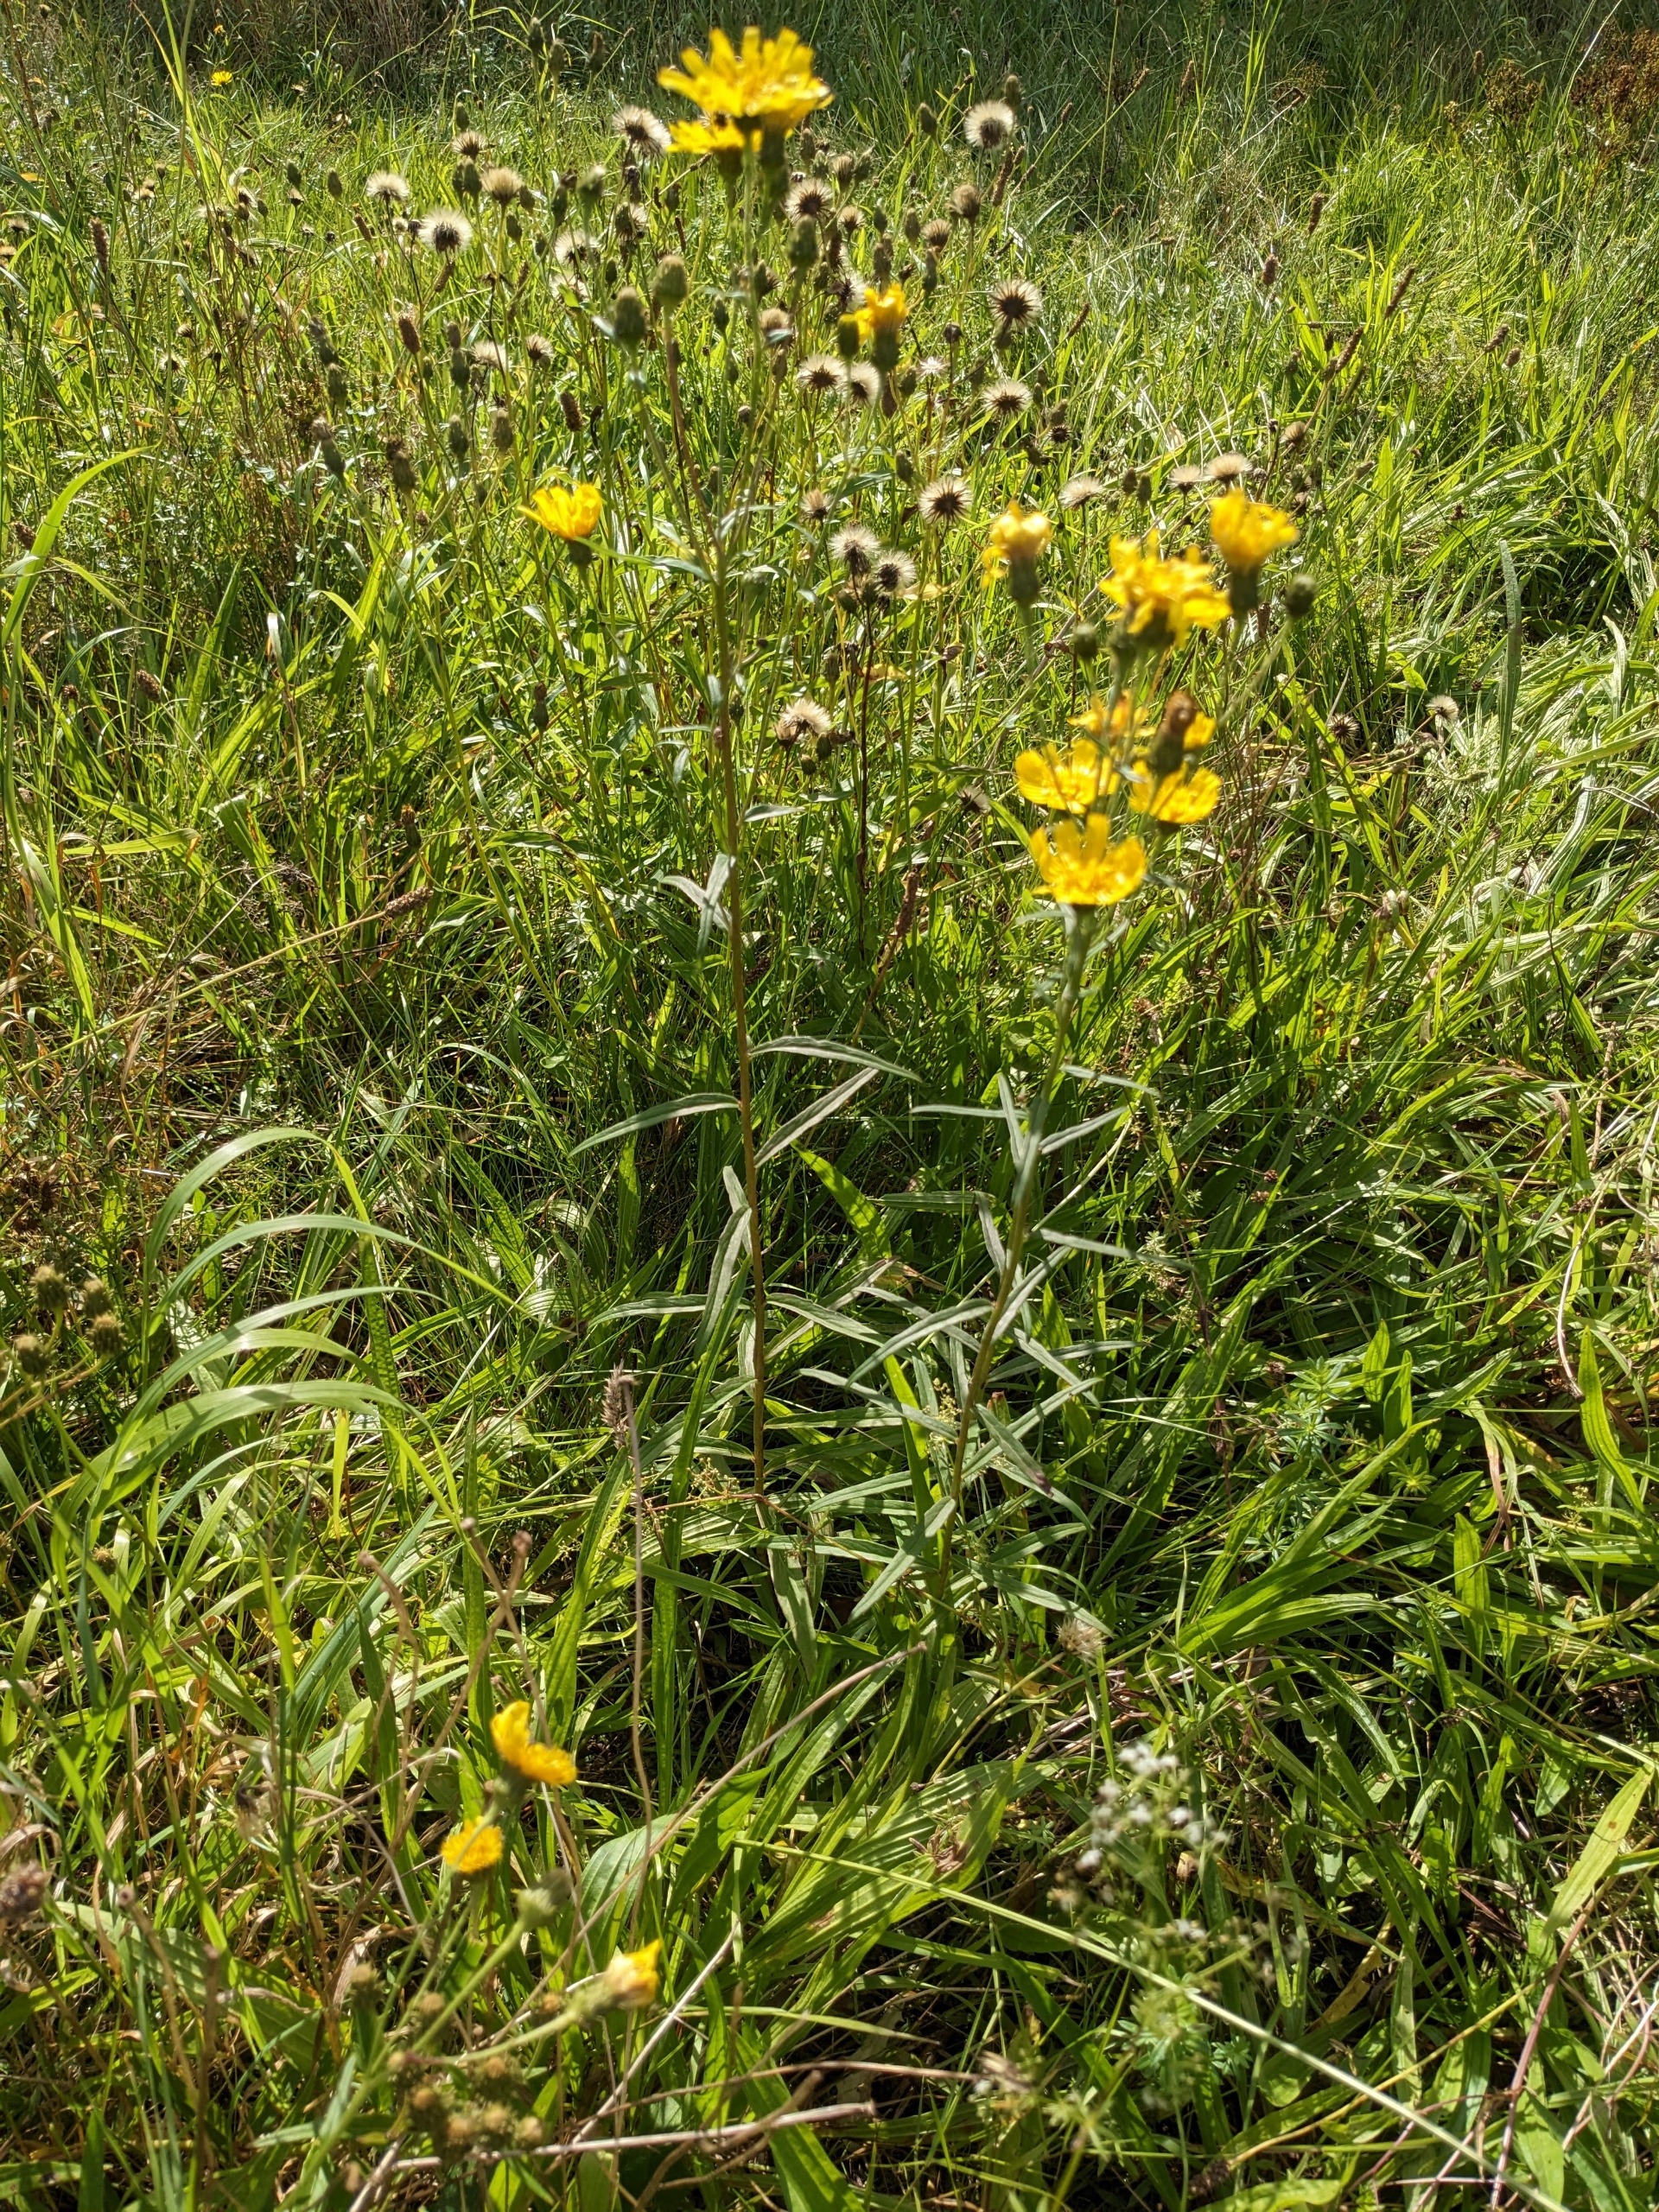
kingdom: Plantae
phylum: Tracheophyta
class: Magnoliopsida
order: Asterales
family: Asteraceae
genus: Hieracium
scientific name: Hieracium umbellatum
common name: Smalbladet høgeurt
